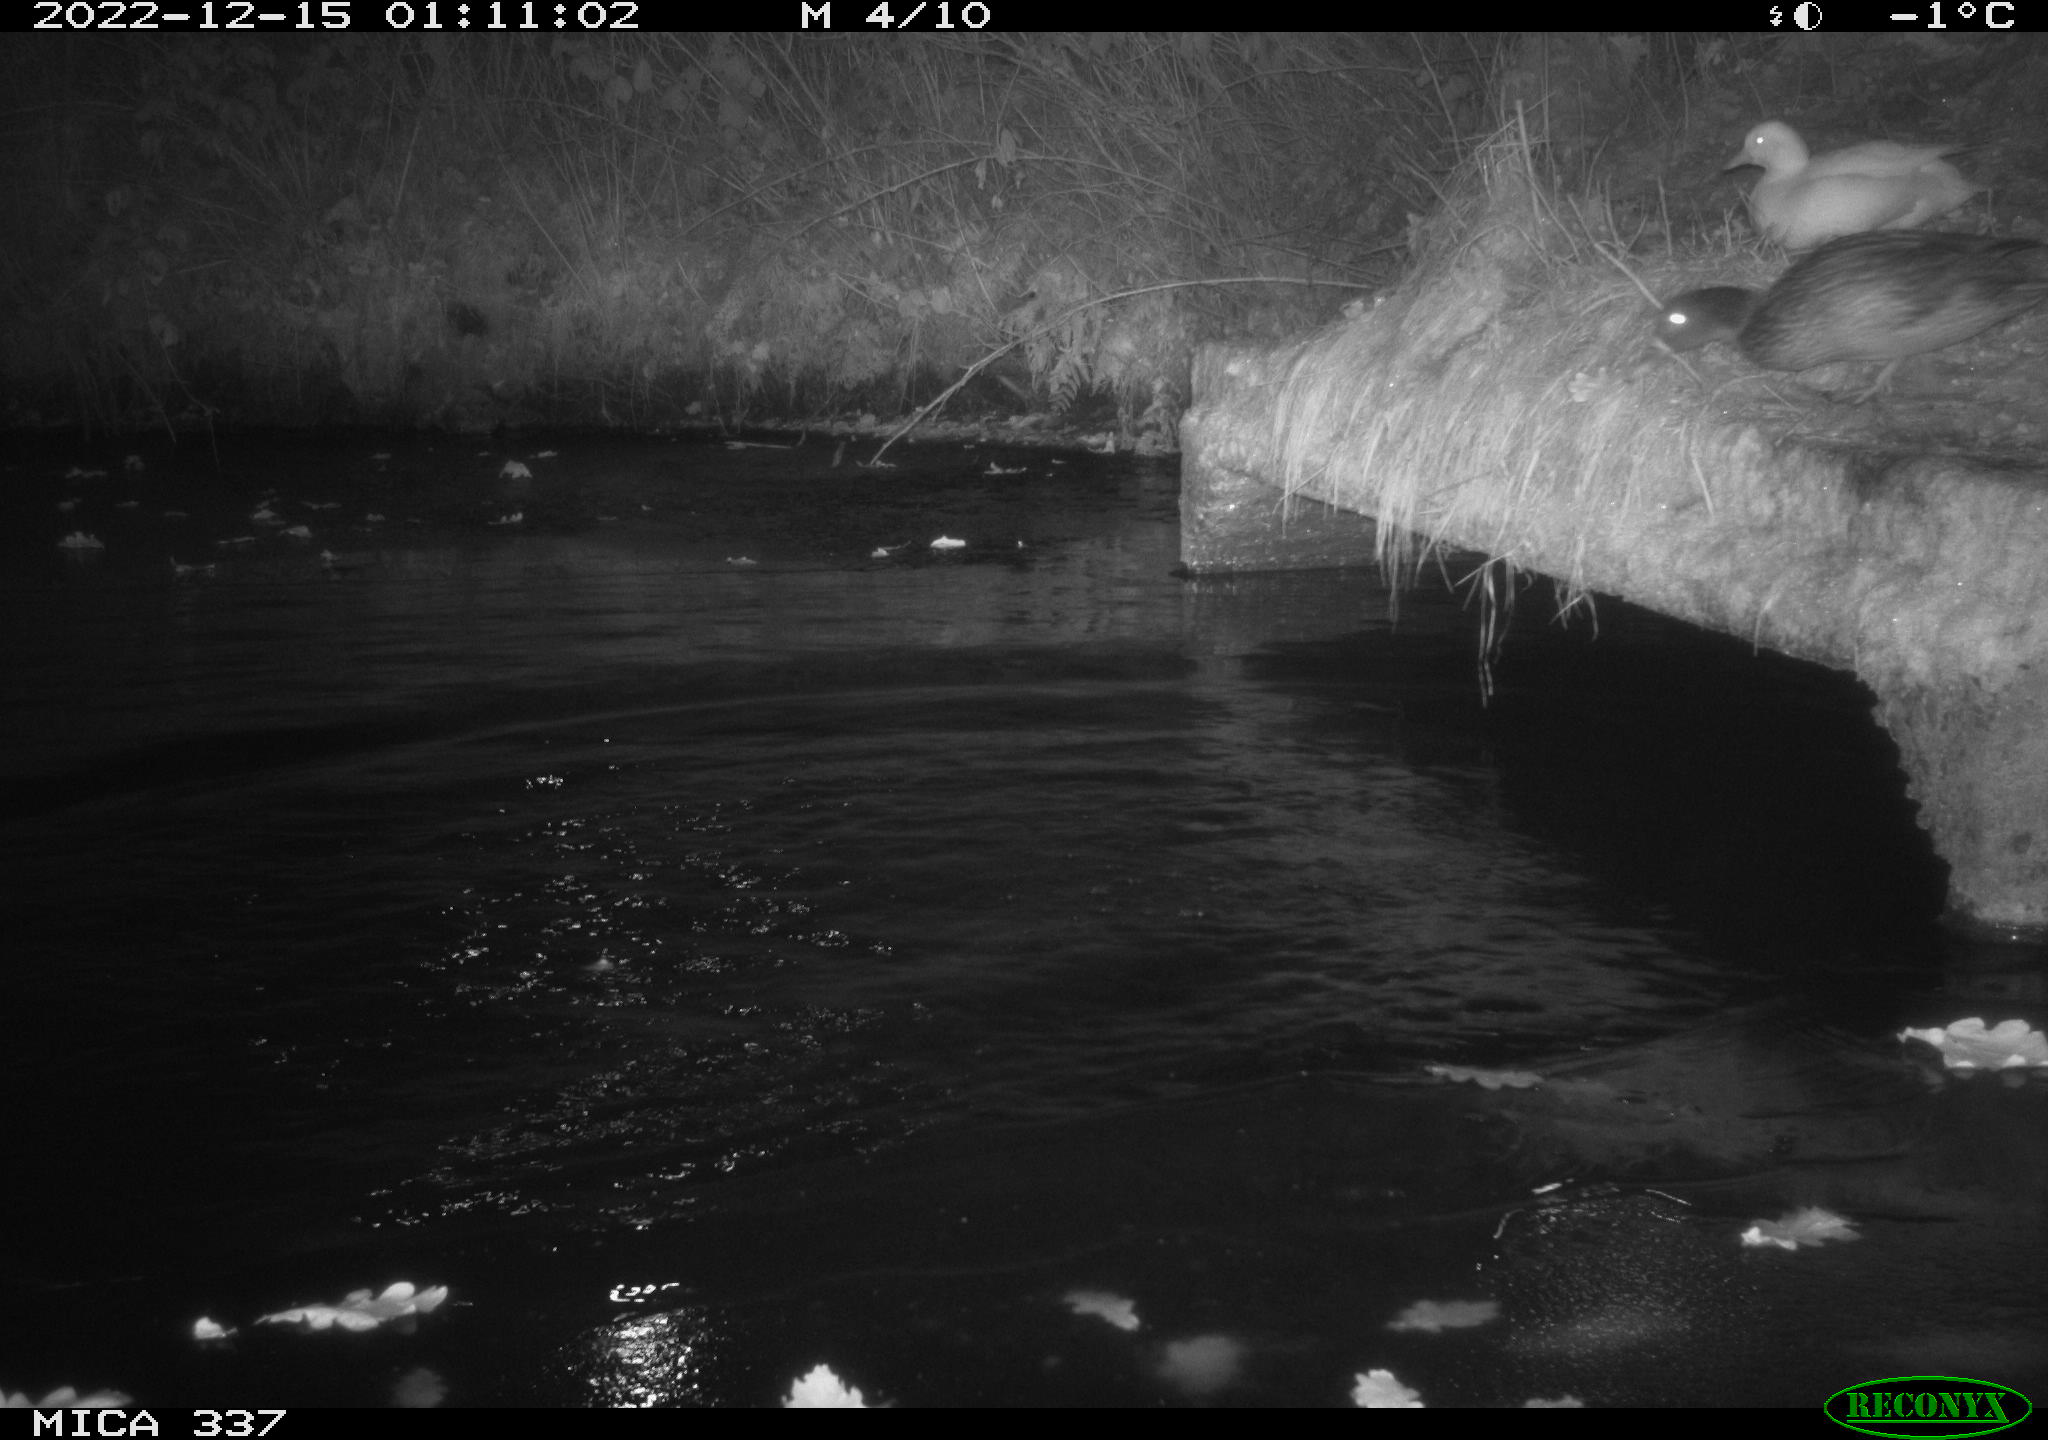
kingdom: Animalia
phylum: Chordata
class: Aves
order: Anseriformes
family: Anatidae
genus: Anas
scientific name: Anas
